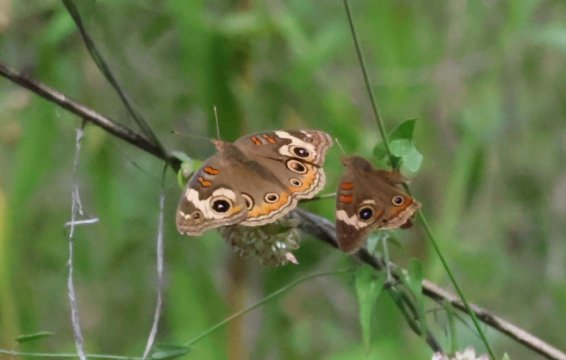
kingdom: Animalia
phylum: Arthropoda
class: Insecta
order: Lepidoptera
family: Nymphalidae
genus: Junonia
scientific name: Junonia coenia
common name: Common Buckeye
